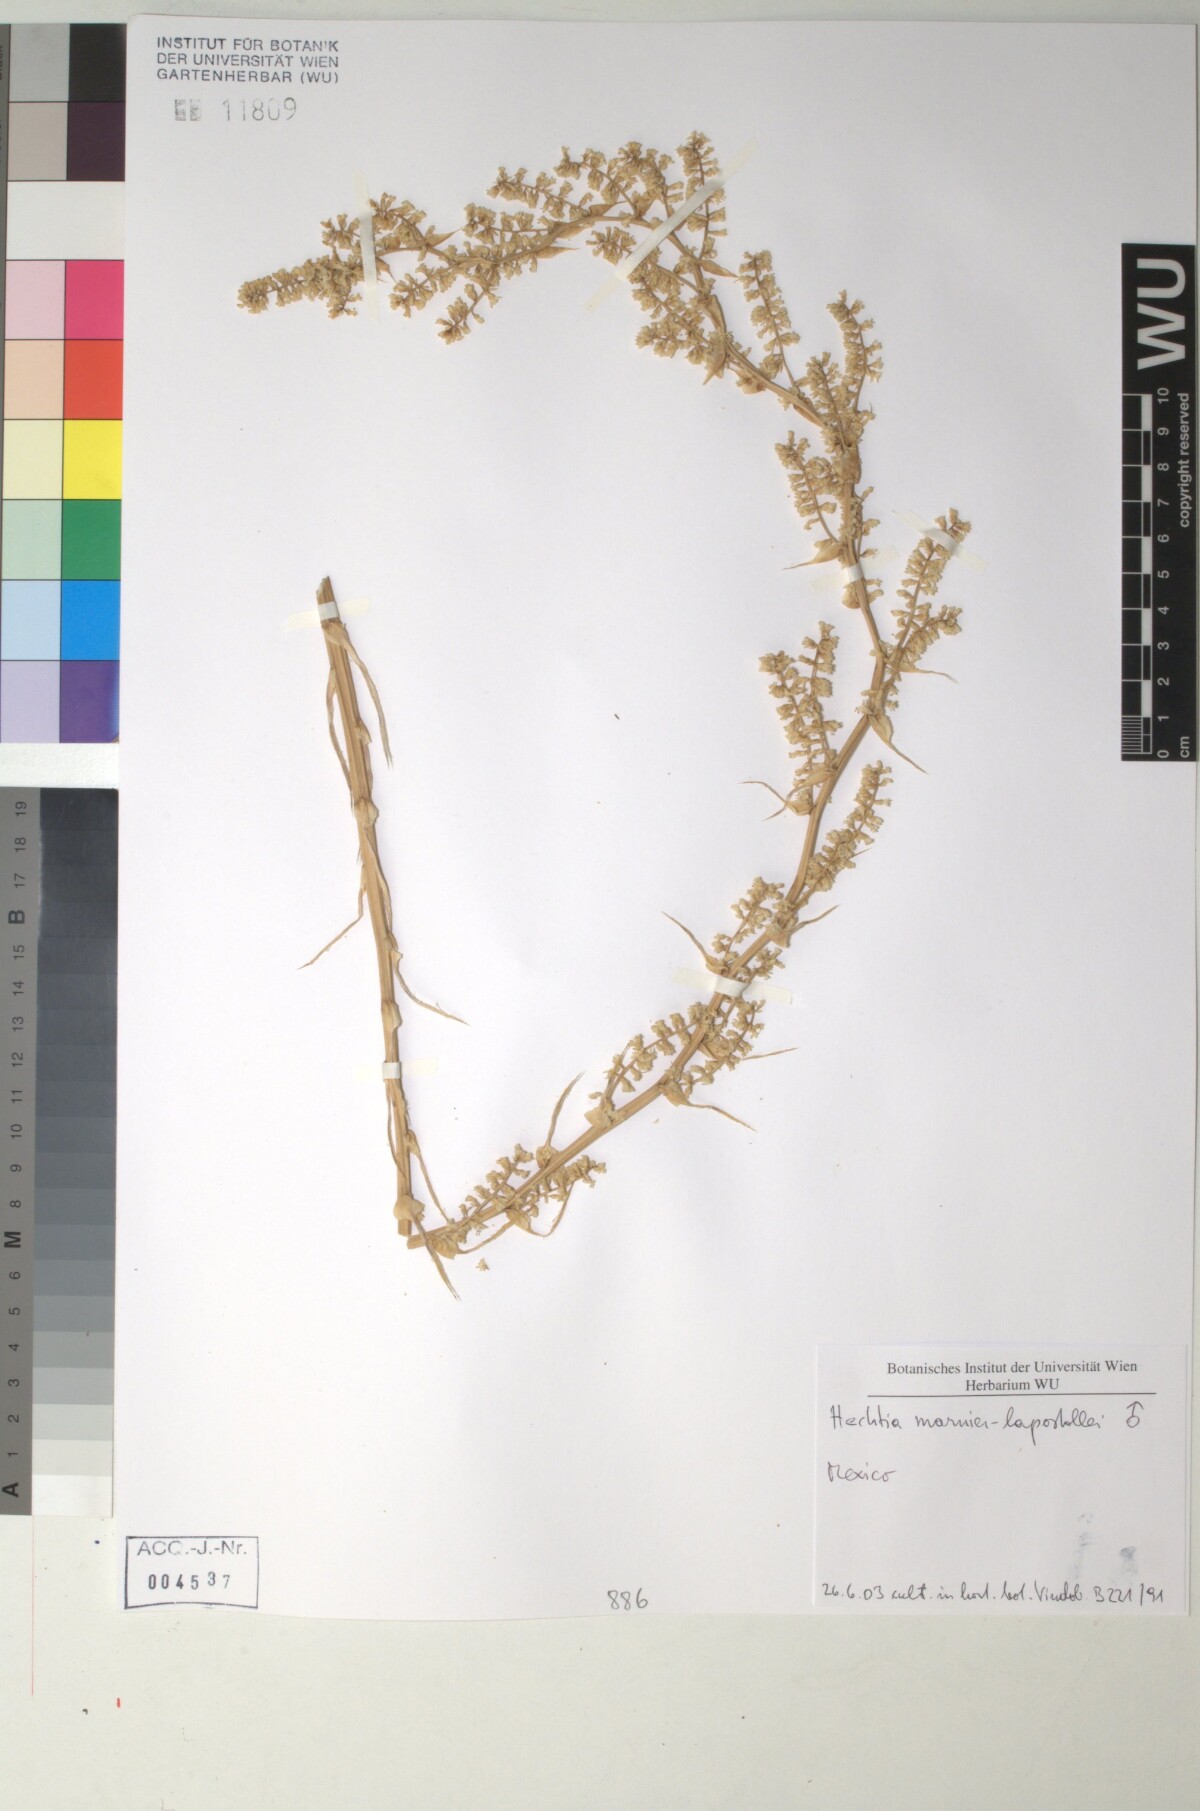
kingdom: Plantae
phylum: Tracheophyta
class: Liliopsida
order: Poales
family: Bromeliaceae
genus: Hechtia
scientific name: Hechtia marnier-lapostollei
